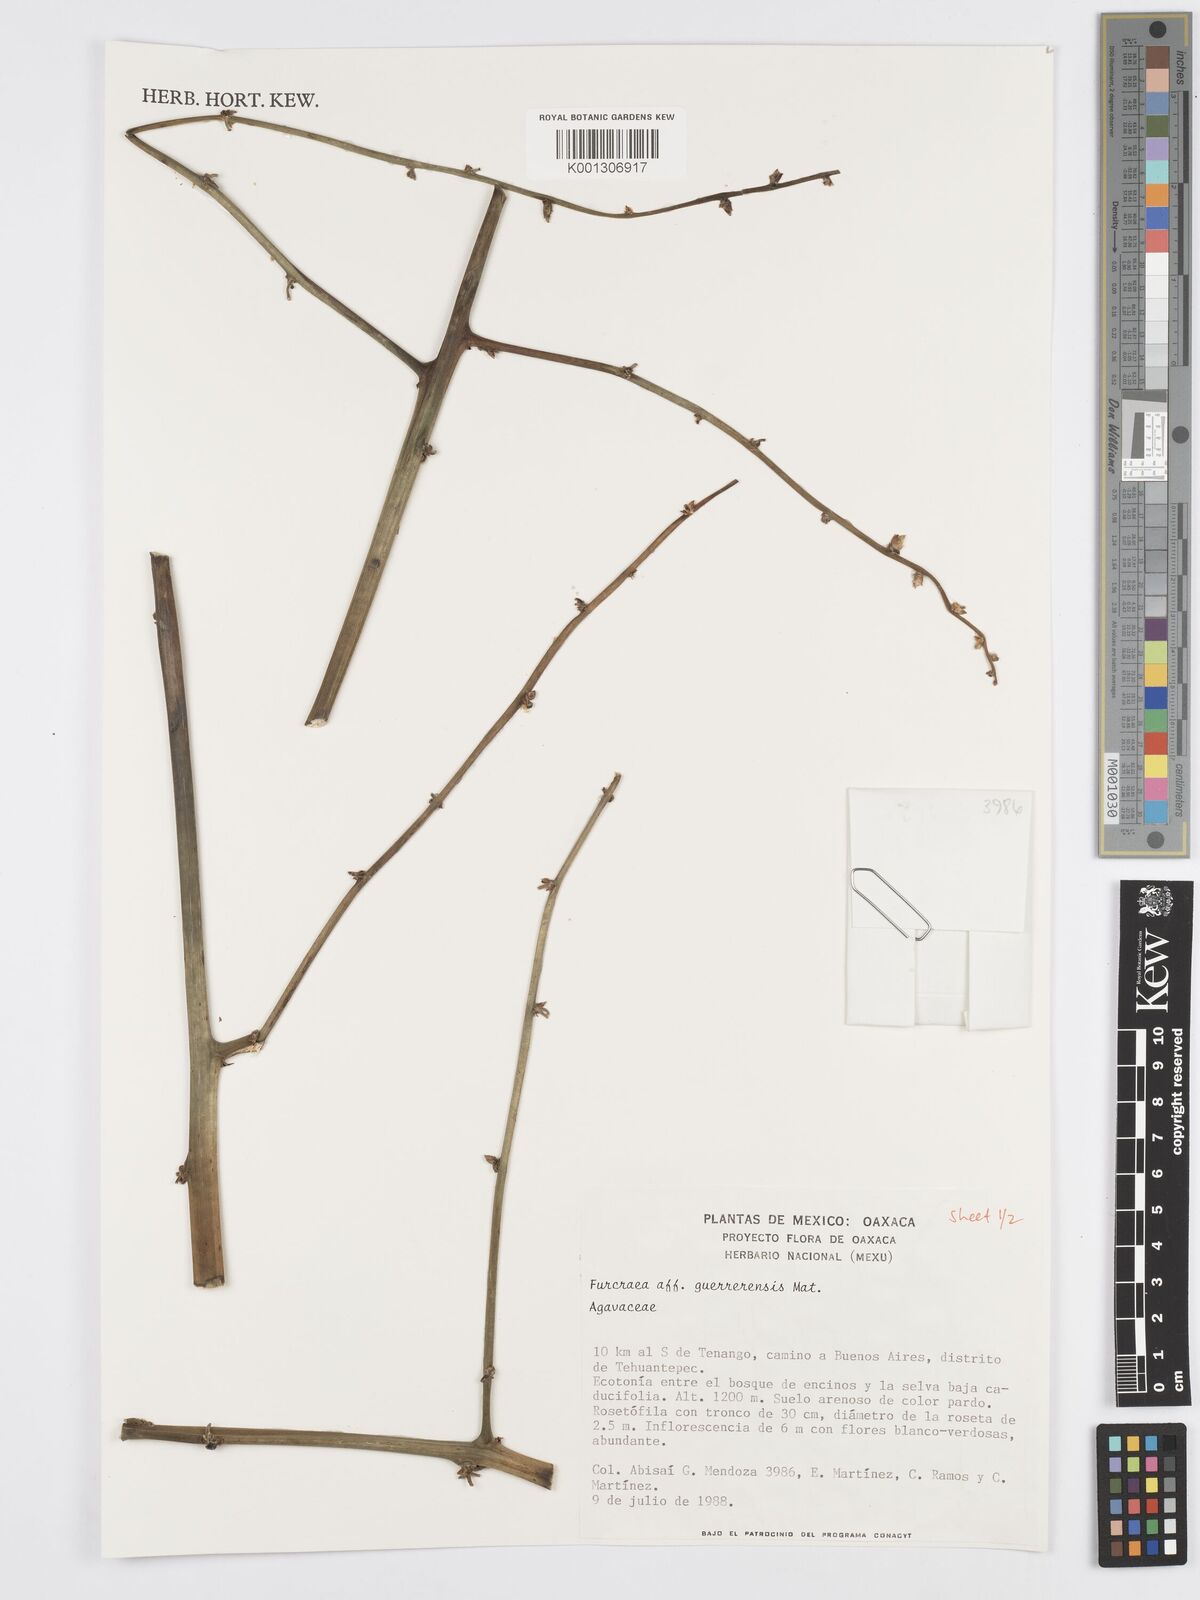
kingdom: Plantae
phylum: Tracheophyta
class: Liliopsida
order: Asparagales
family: Asparagaceae
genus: Furcraea
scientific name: Furcraea guerrerensis
